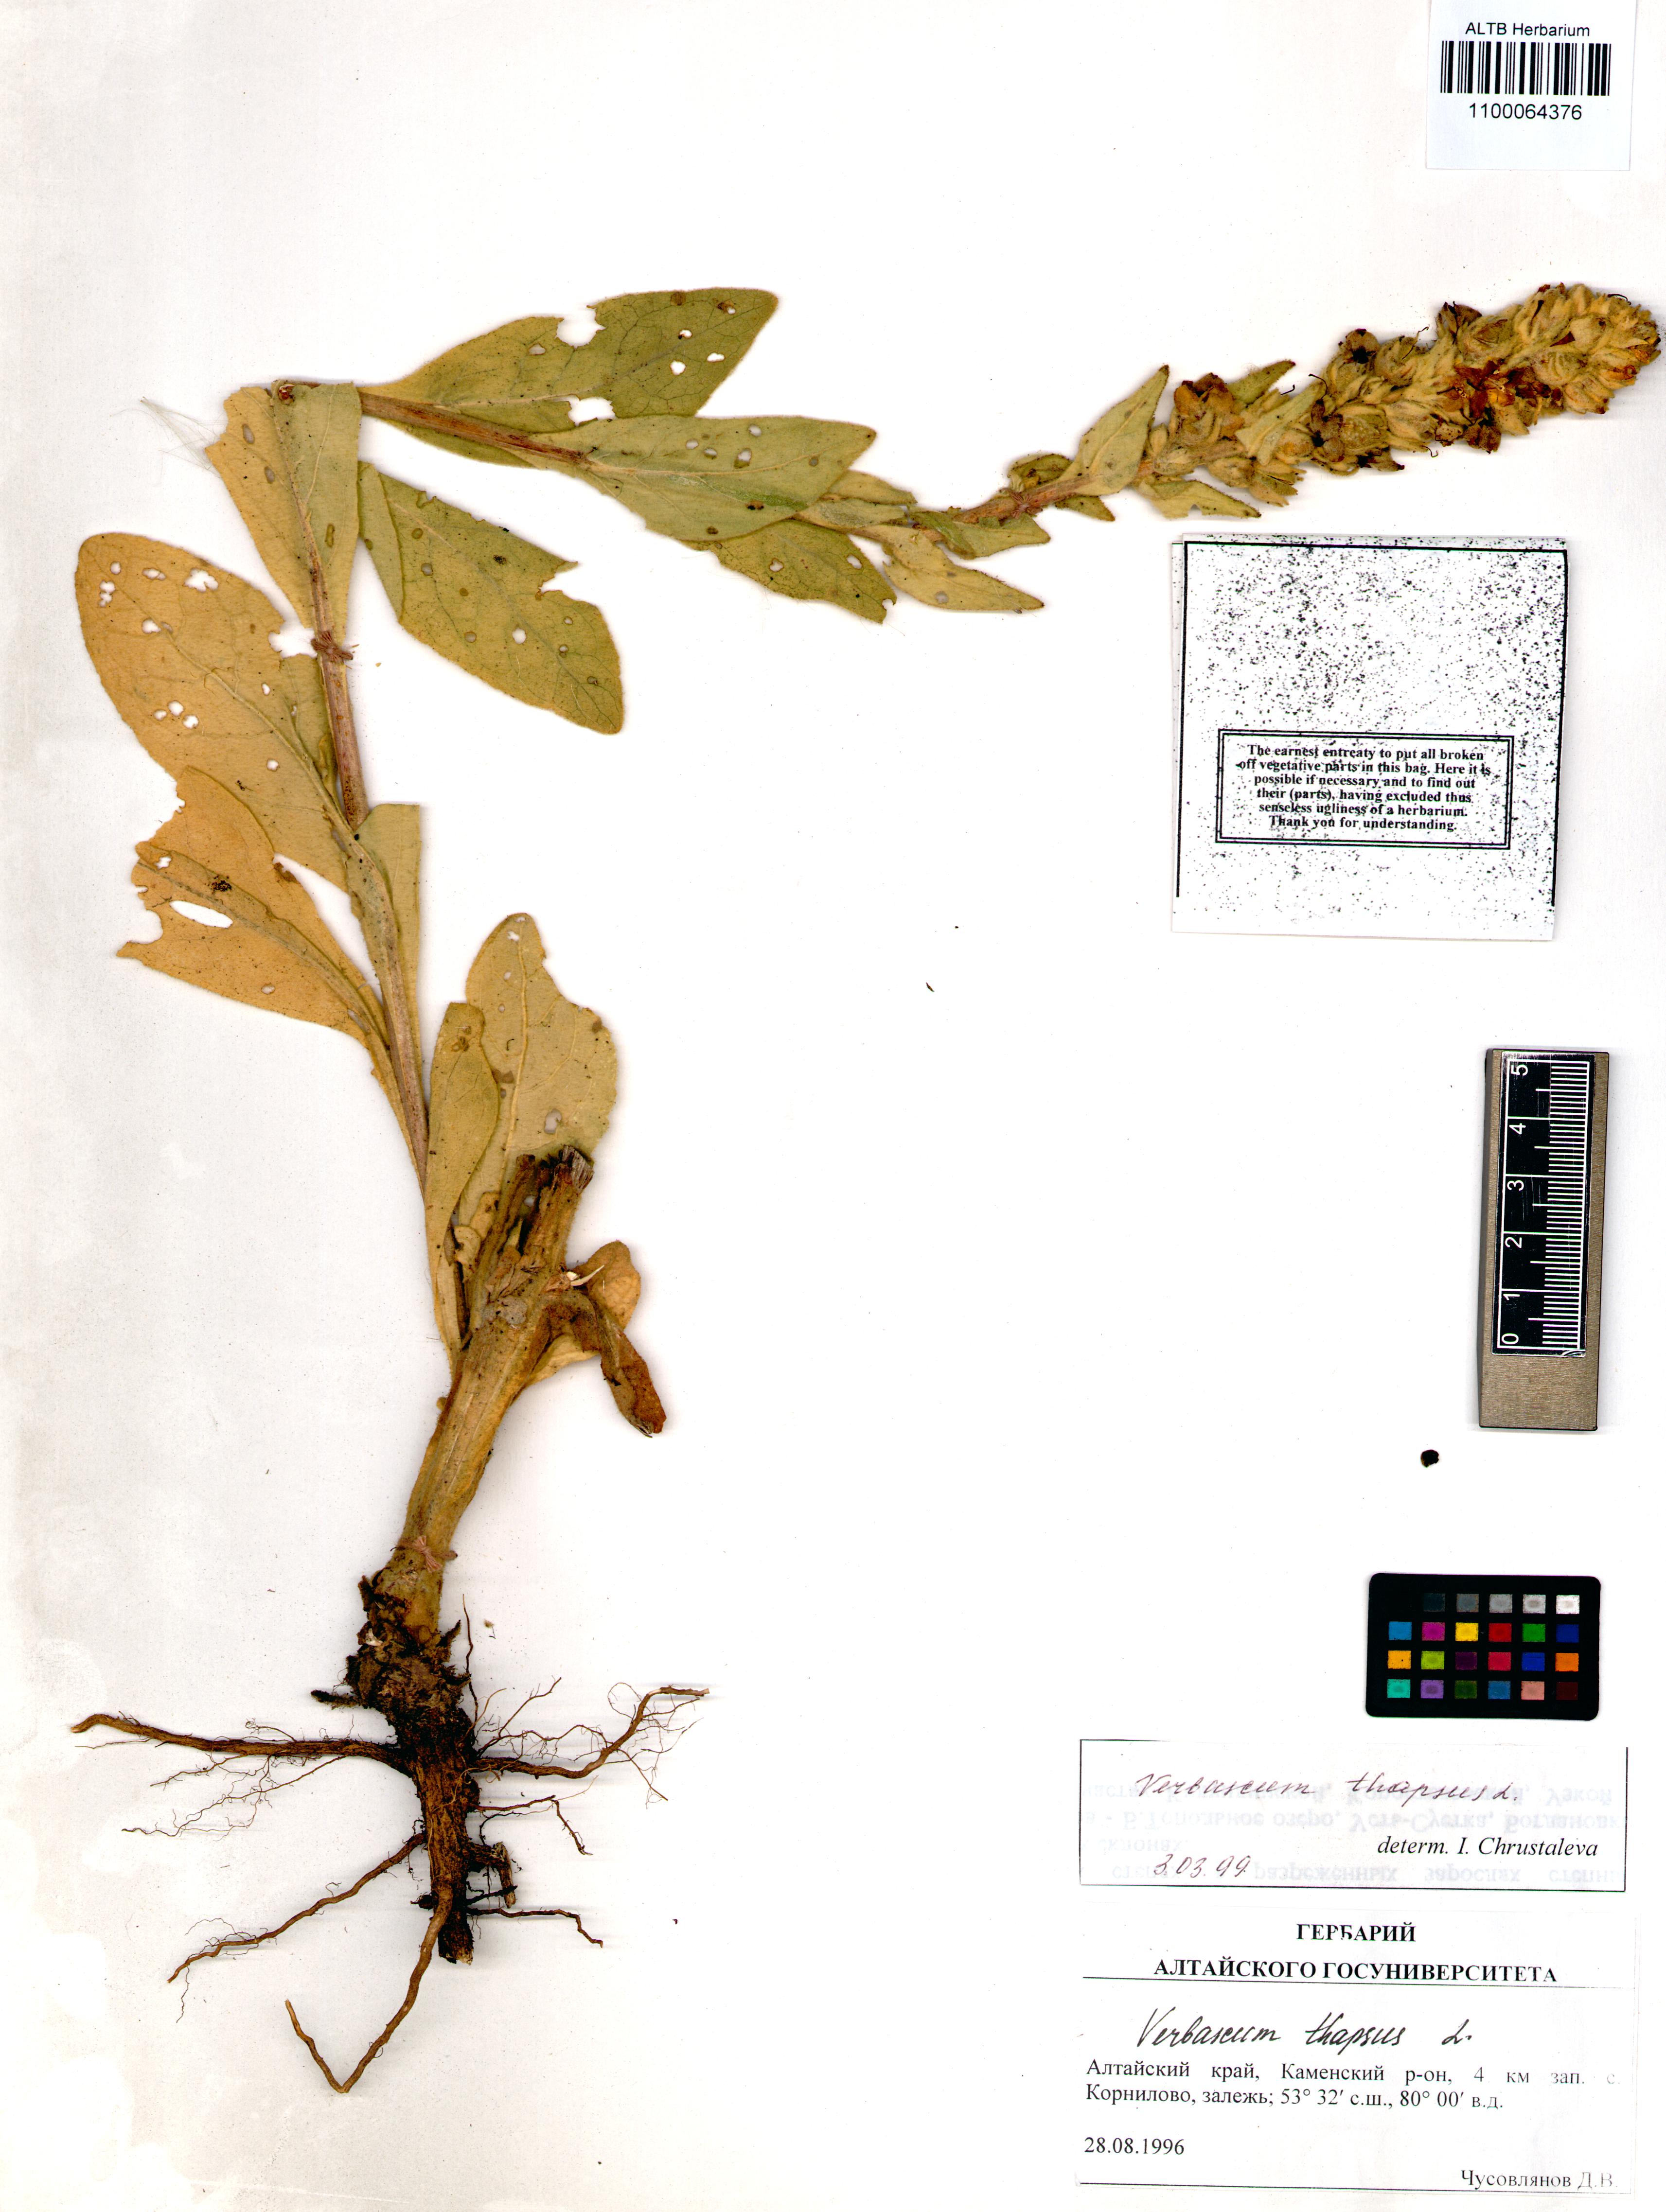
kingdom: Plantae
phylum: Tracheophyta
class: Magnoliopsida
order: Lamiales
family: Scrophulariaceae
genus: Verbascum
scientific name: Verbascum thapsus
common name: Common mullein
